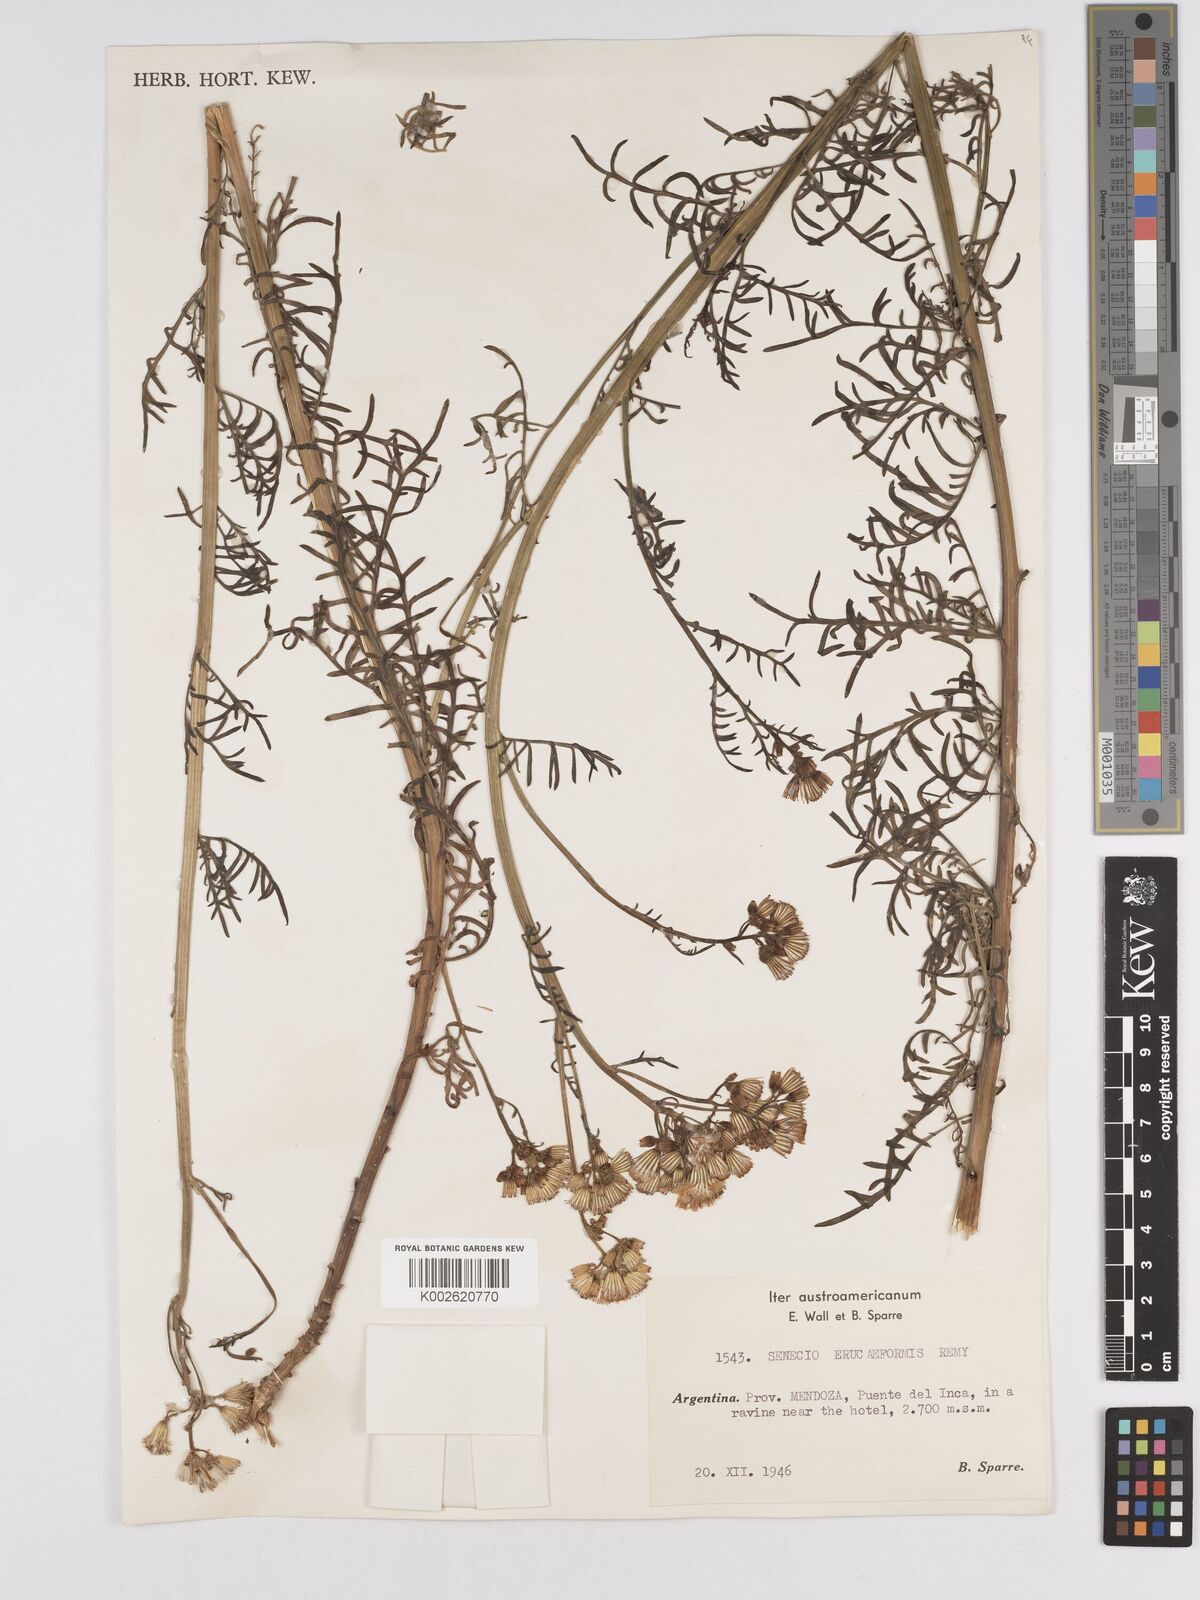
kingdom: Plantae
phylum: Tracheophyta
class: Magnoliopsida
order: Asterales
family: Asteraceae
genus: Senecio
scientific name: Senecio eruciformis
